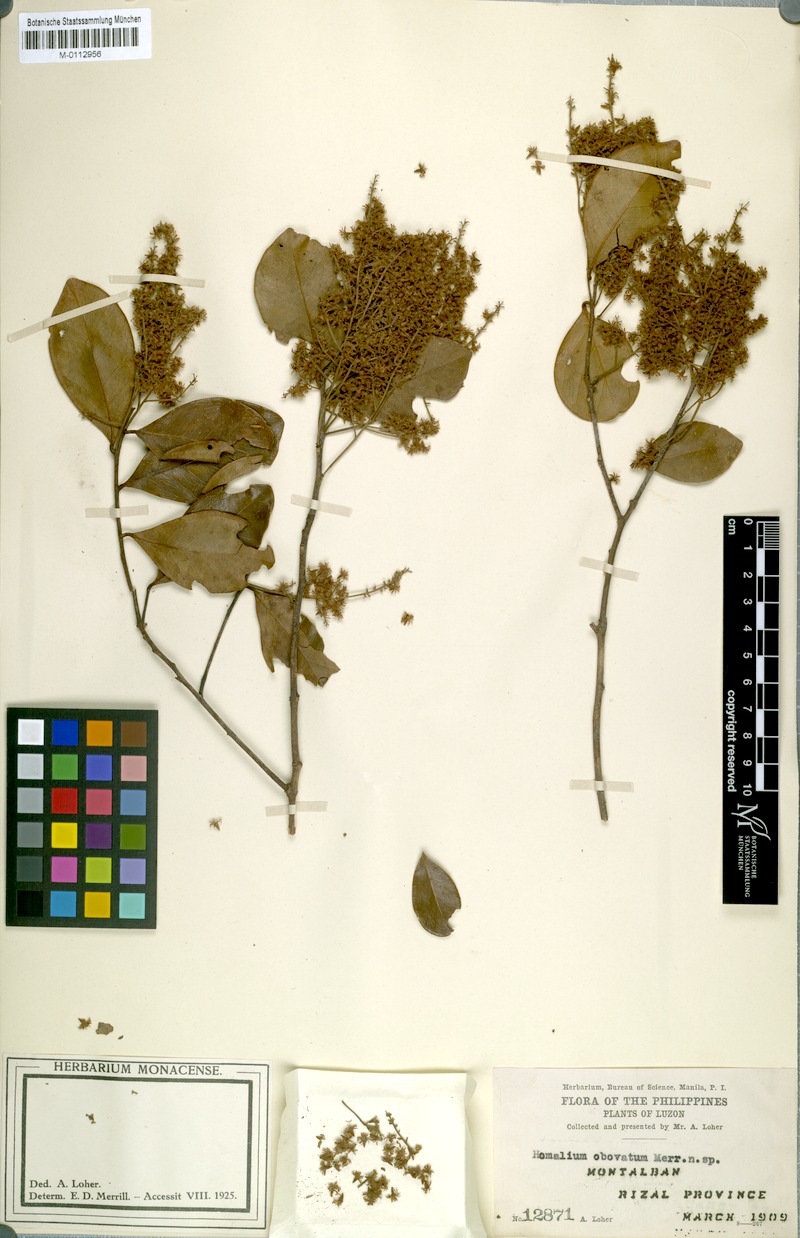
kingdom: Plantae
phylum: Tracheophyta
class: Magnoliopsida
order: Malpighiales
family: Salicaceae
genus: Homalium
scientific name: Homalium panayanum
